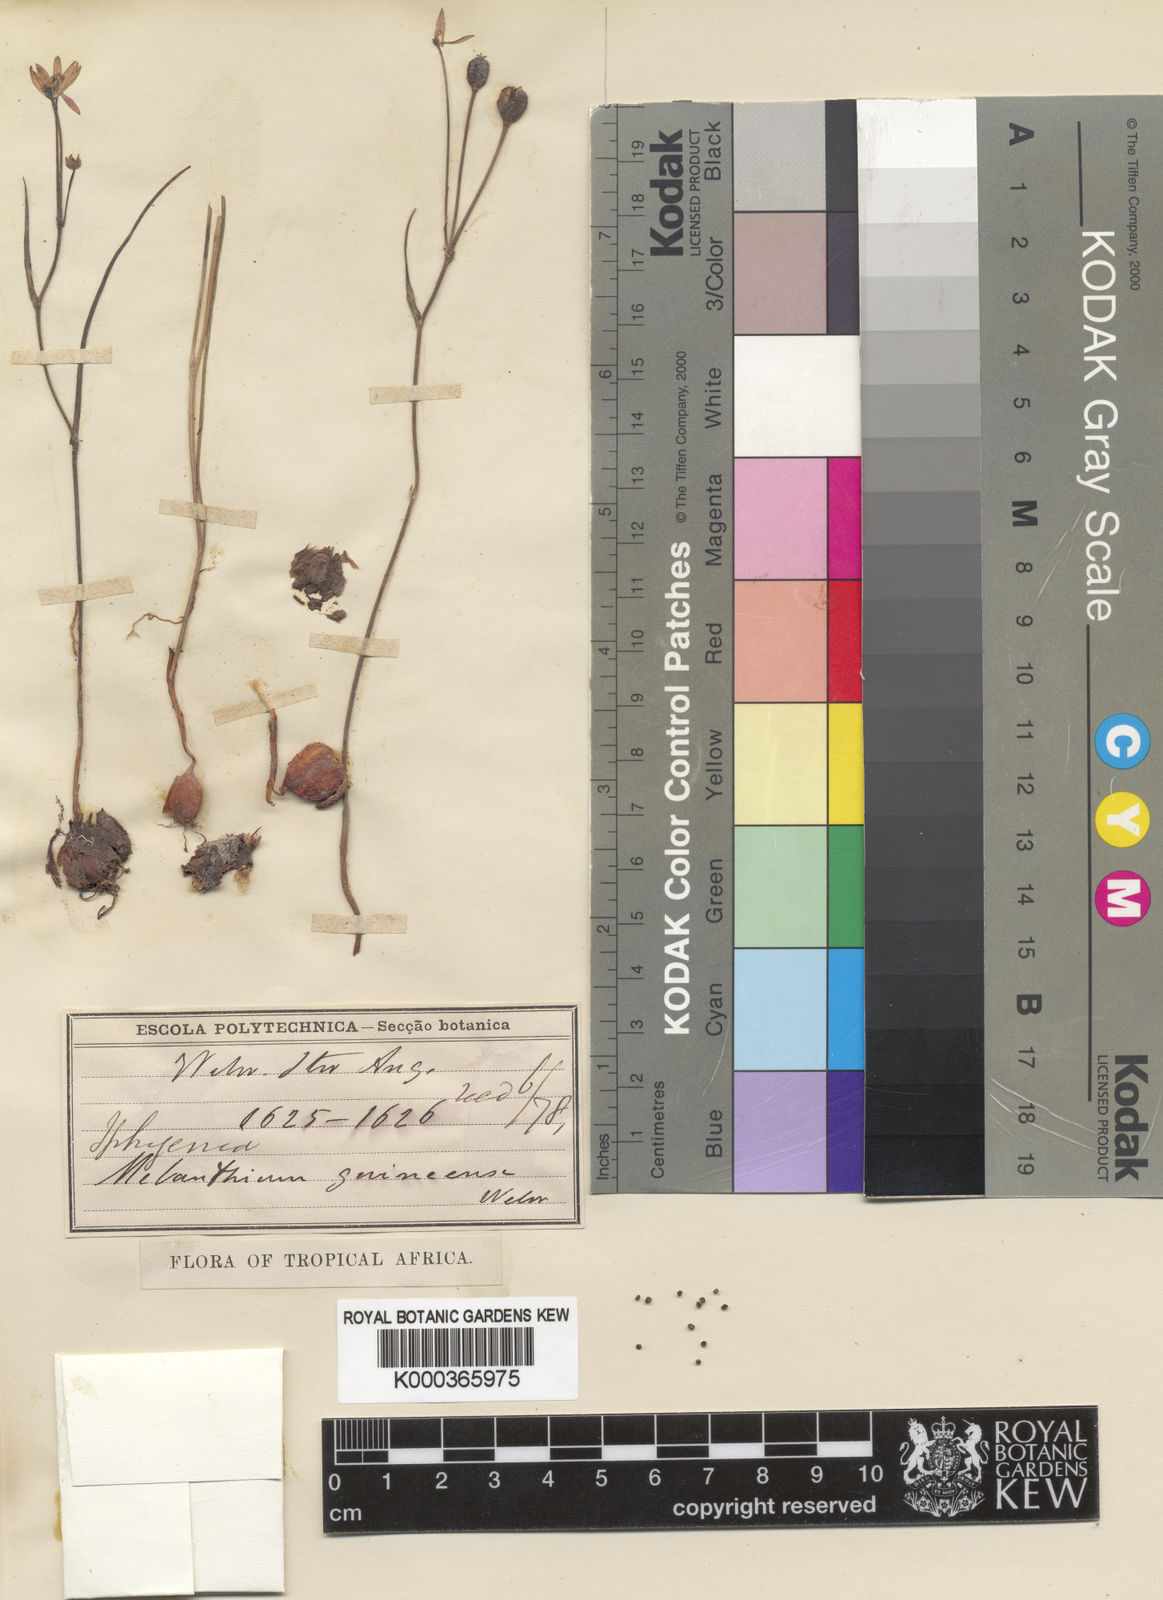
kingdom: Plantae
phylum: Tracheophyta
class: Liliopsida
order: Liliales
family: Colchicaceae
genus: Camptorrhiza
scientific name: Camptorrhiza strumosa
